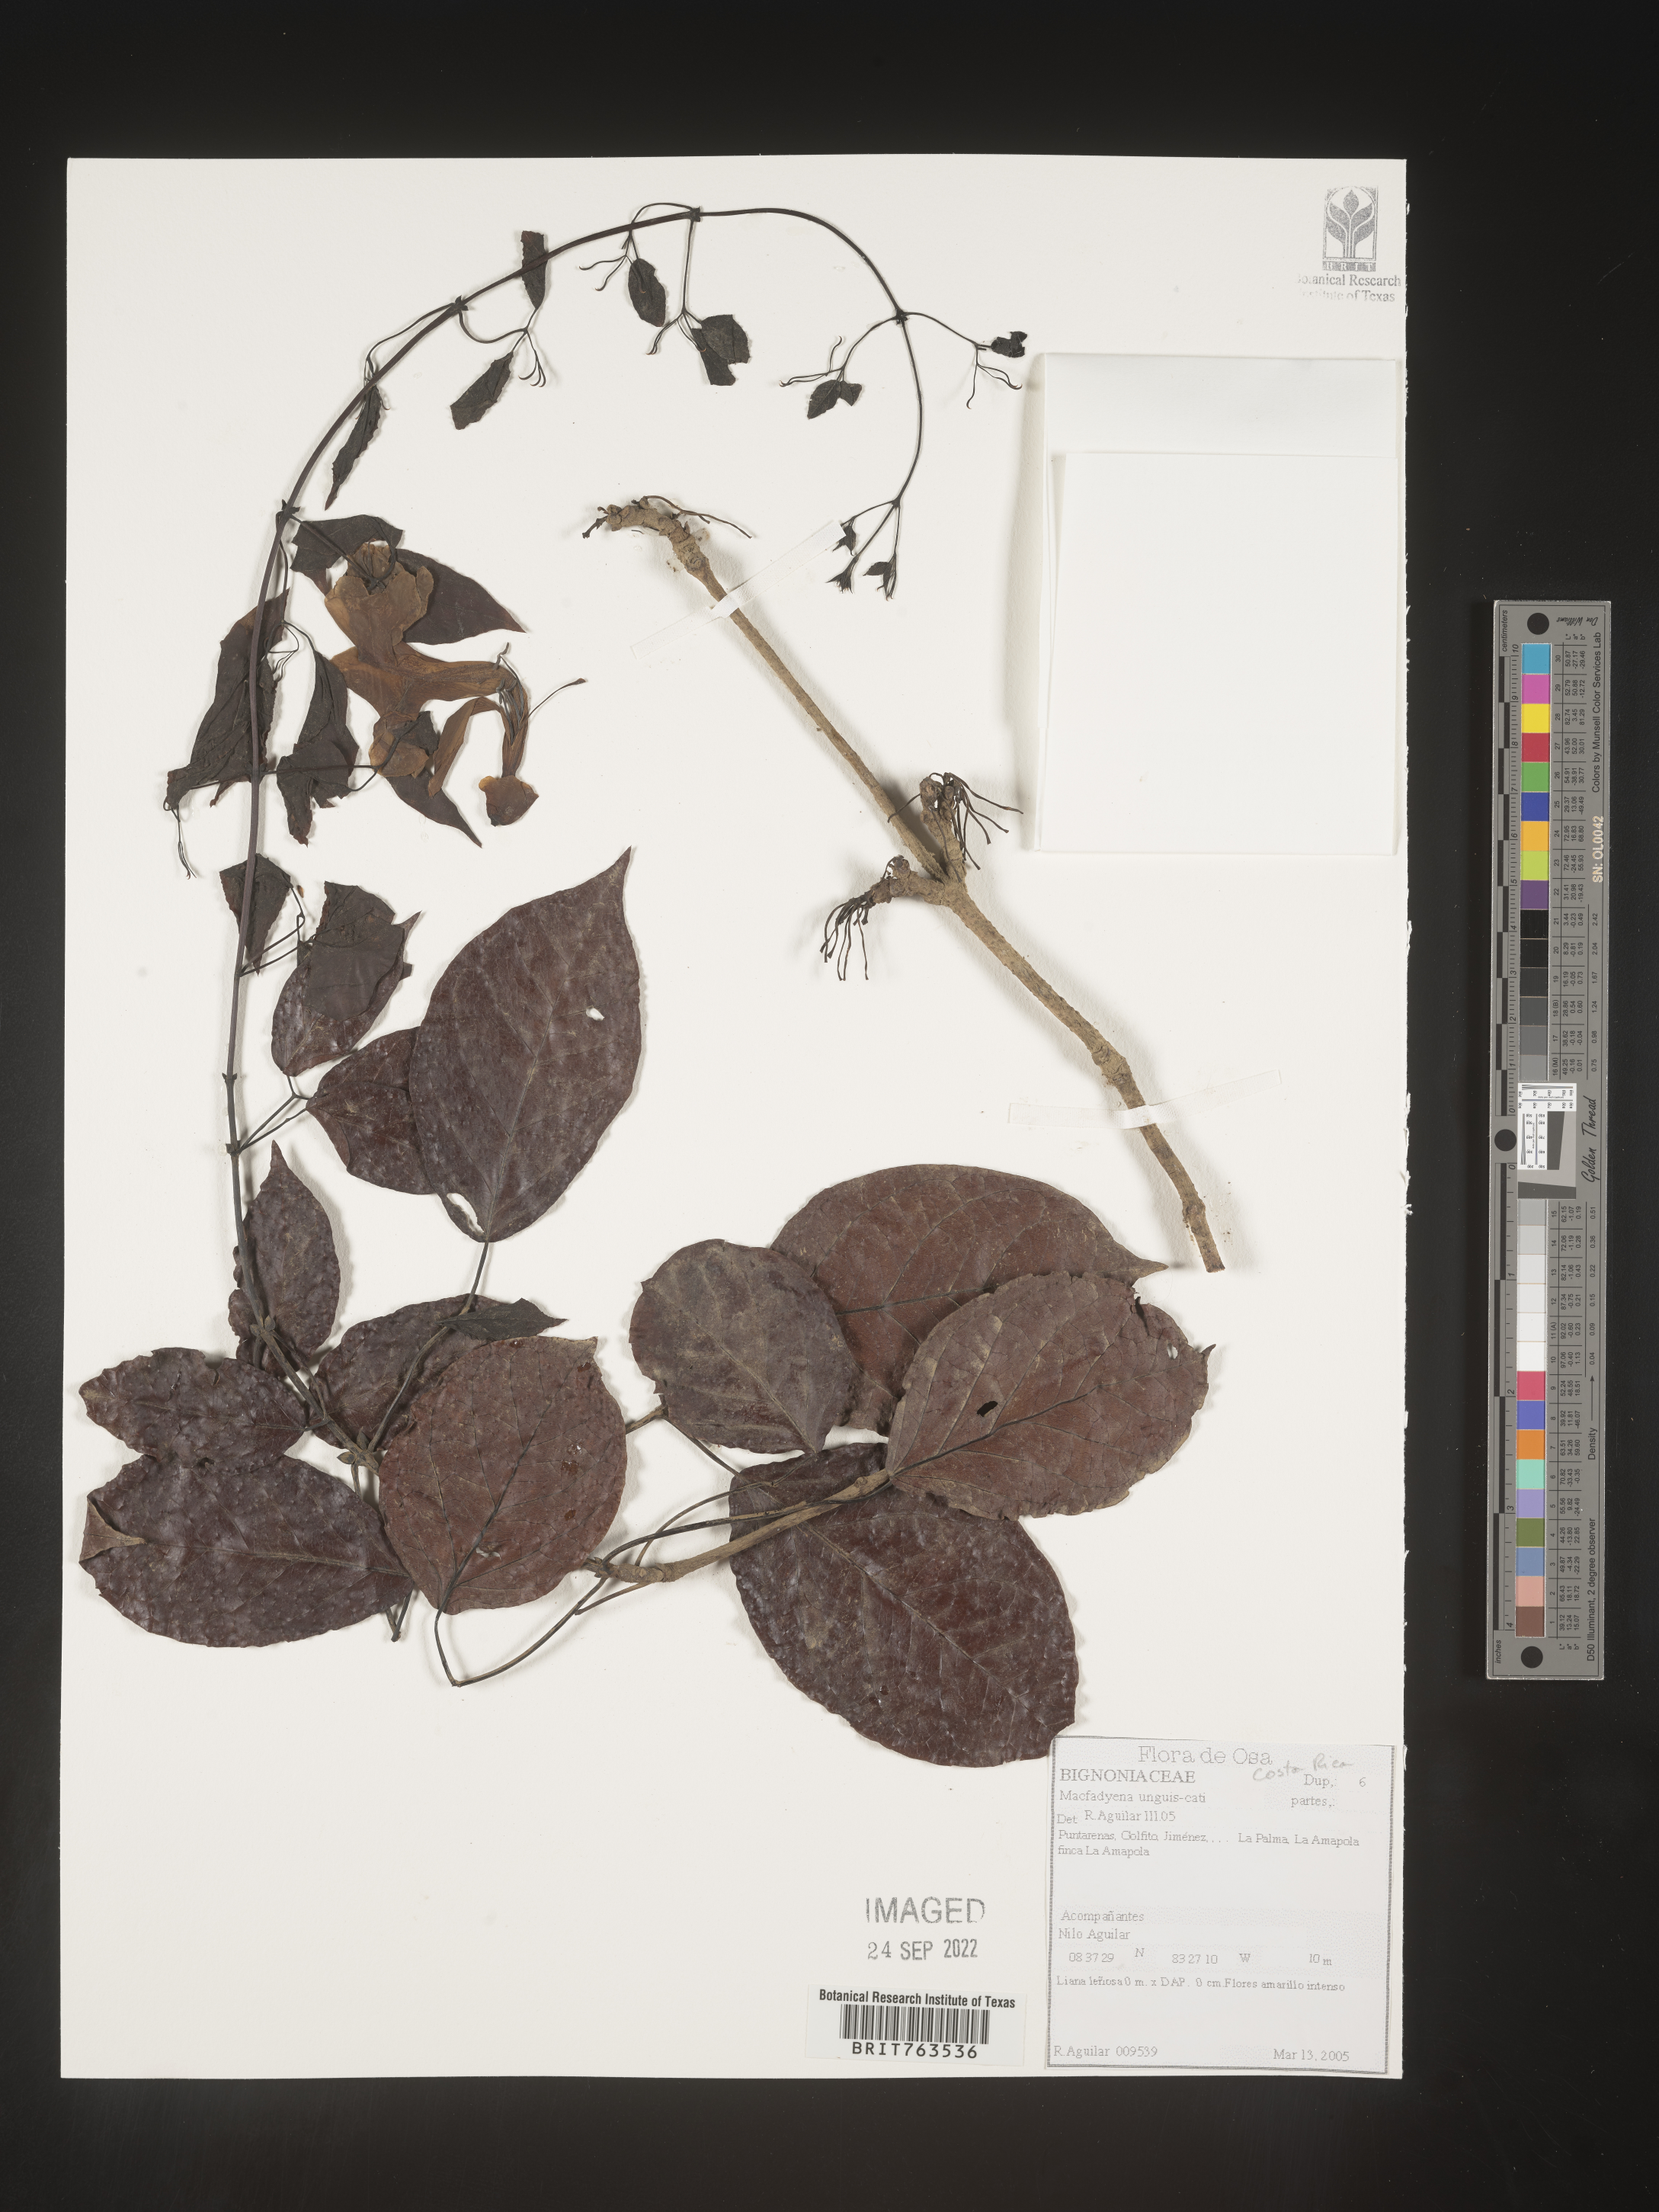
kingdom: Animalia
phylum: Chordata
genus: Macfadyena
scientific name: Macfadyena
